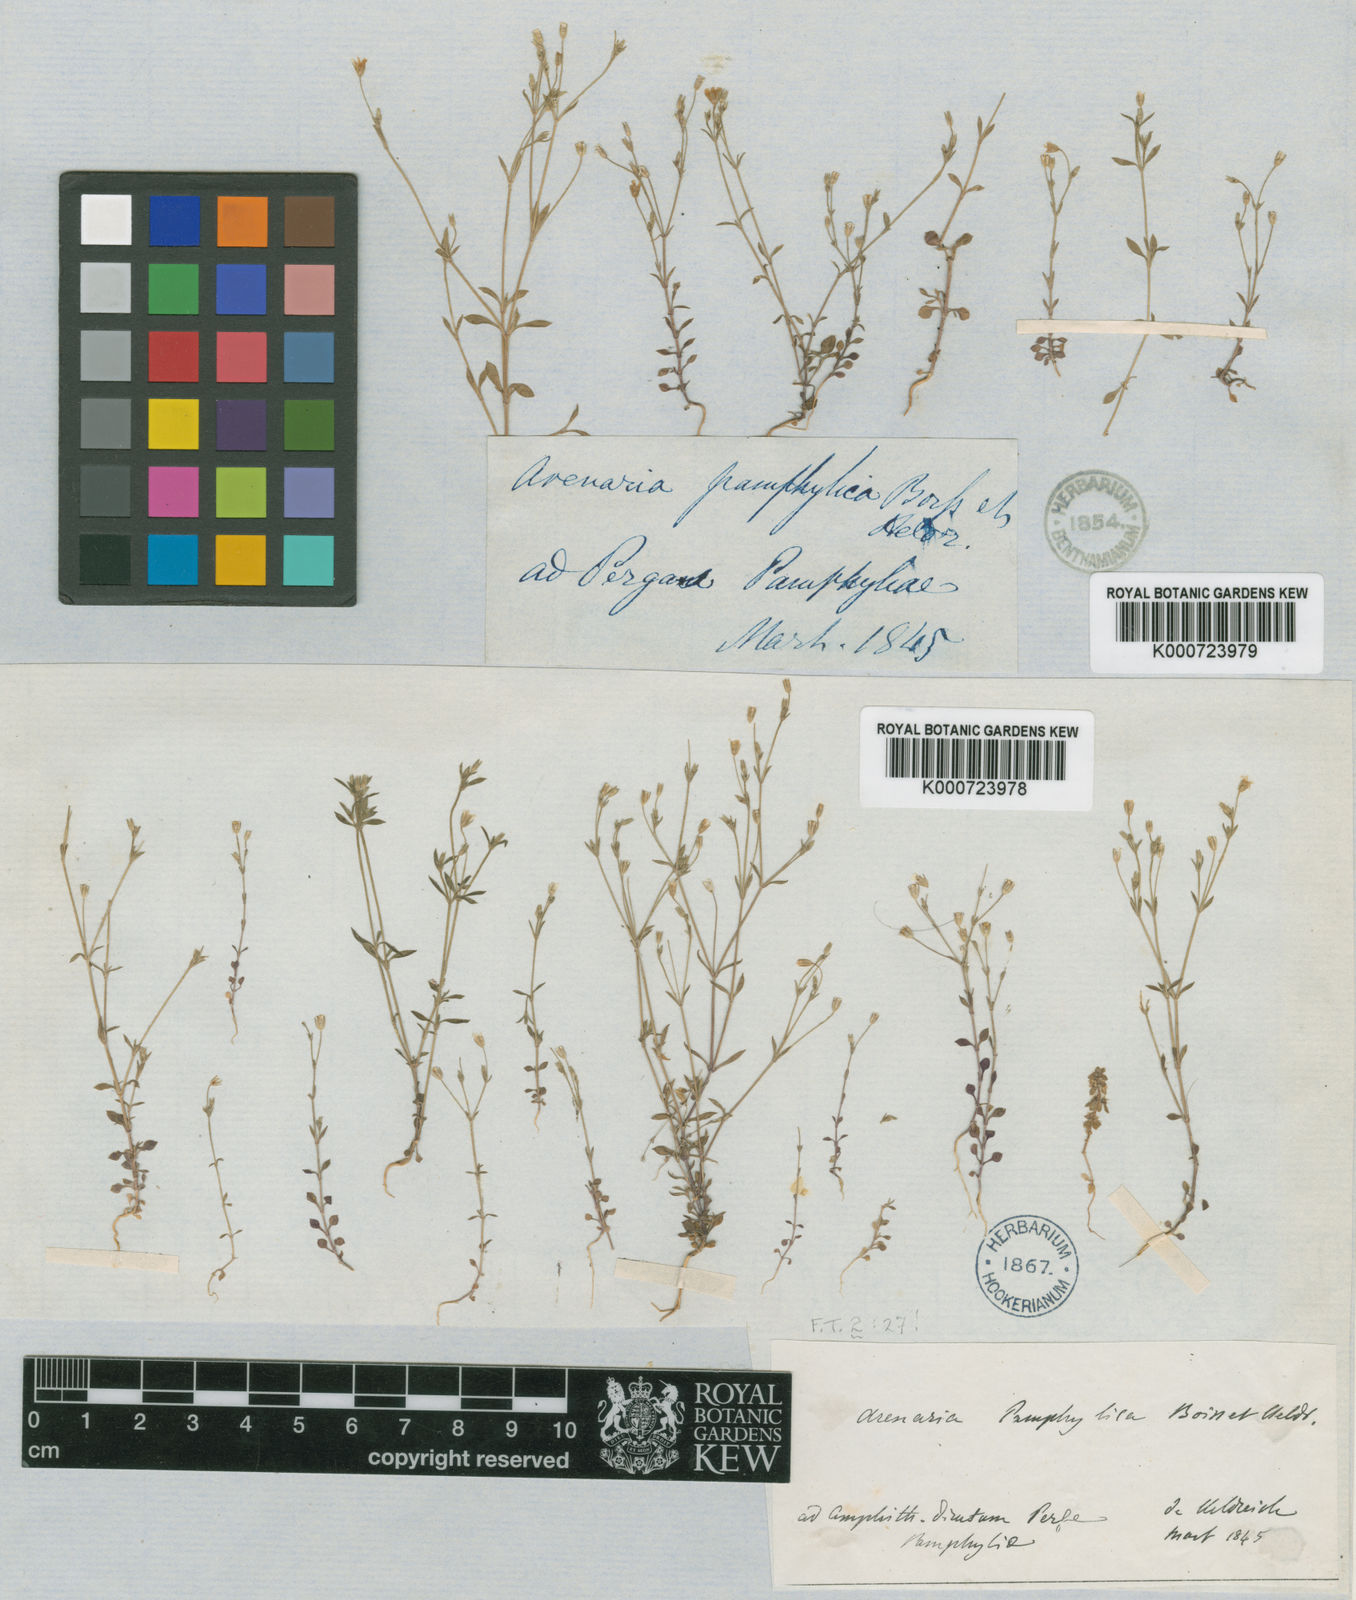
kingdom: Plantae
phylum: Tracheophyta
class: Magnoliopsida
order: Caryophyllales
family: Caryophyllaceae
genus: Arenaria
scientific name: Arenaria pamphylica
